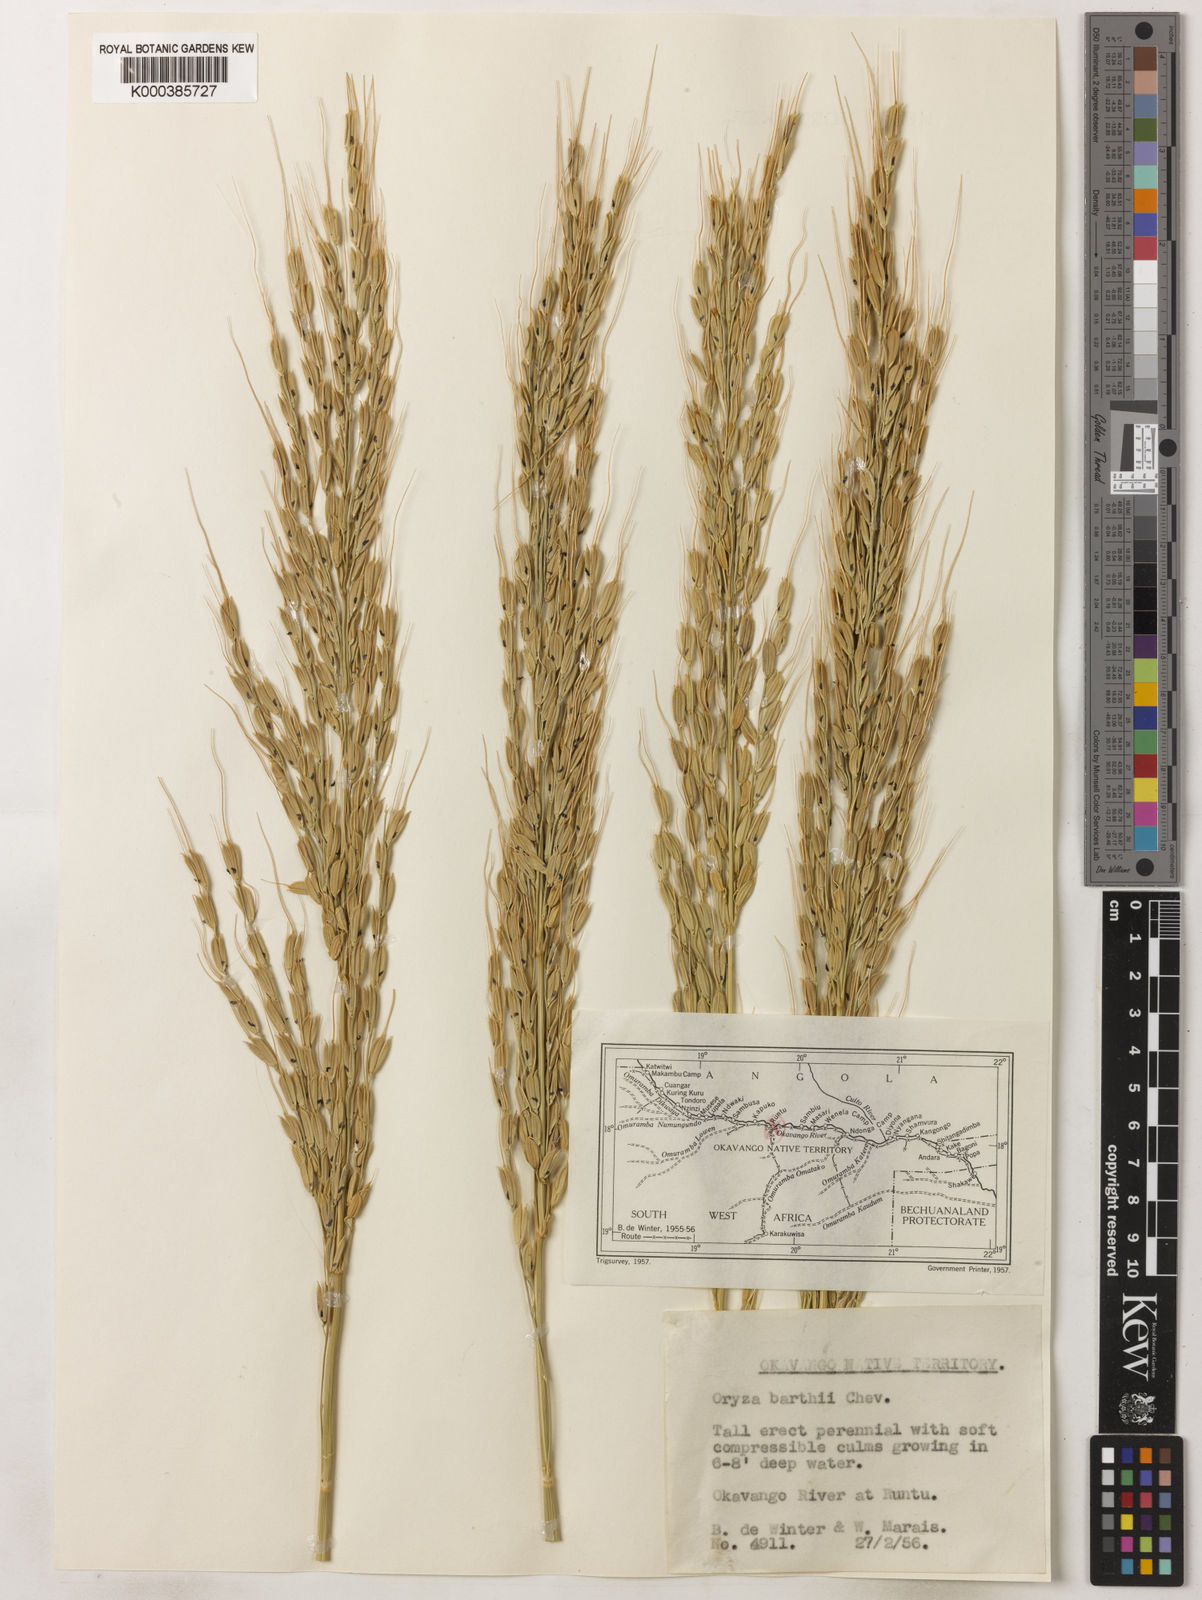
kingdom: Plantae
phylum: Tracheophyta
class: Liliopsida
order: Poales
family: Poaceae
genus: Oryza
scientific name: Oryza longistaminata
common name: Red rice
